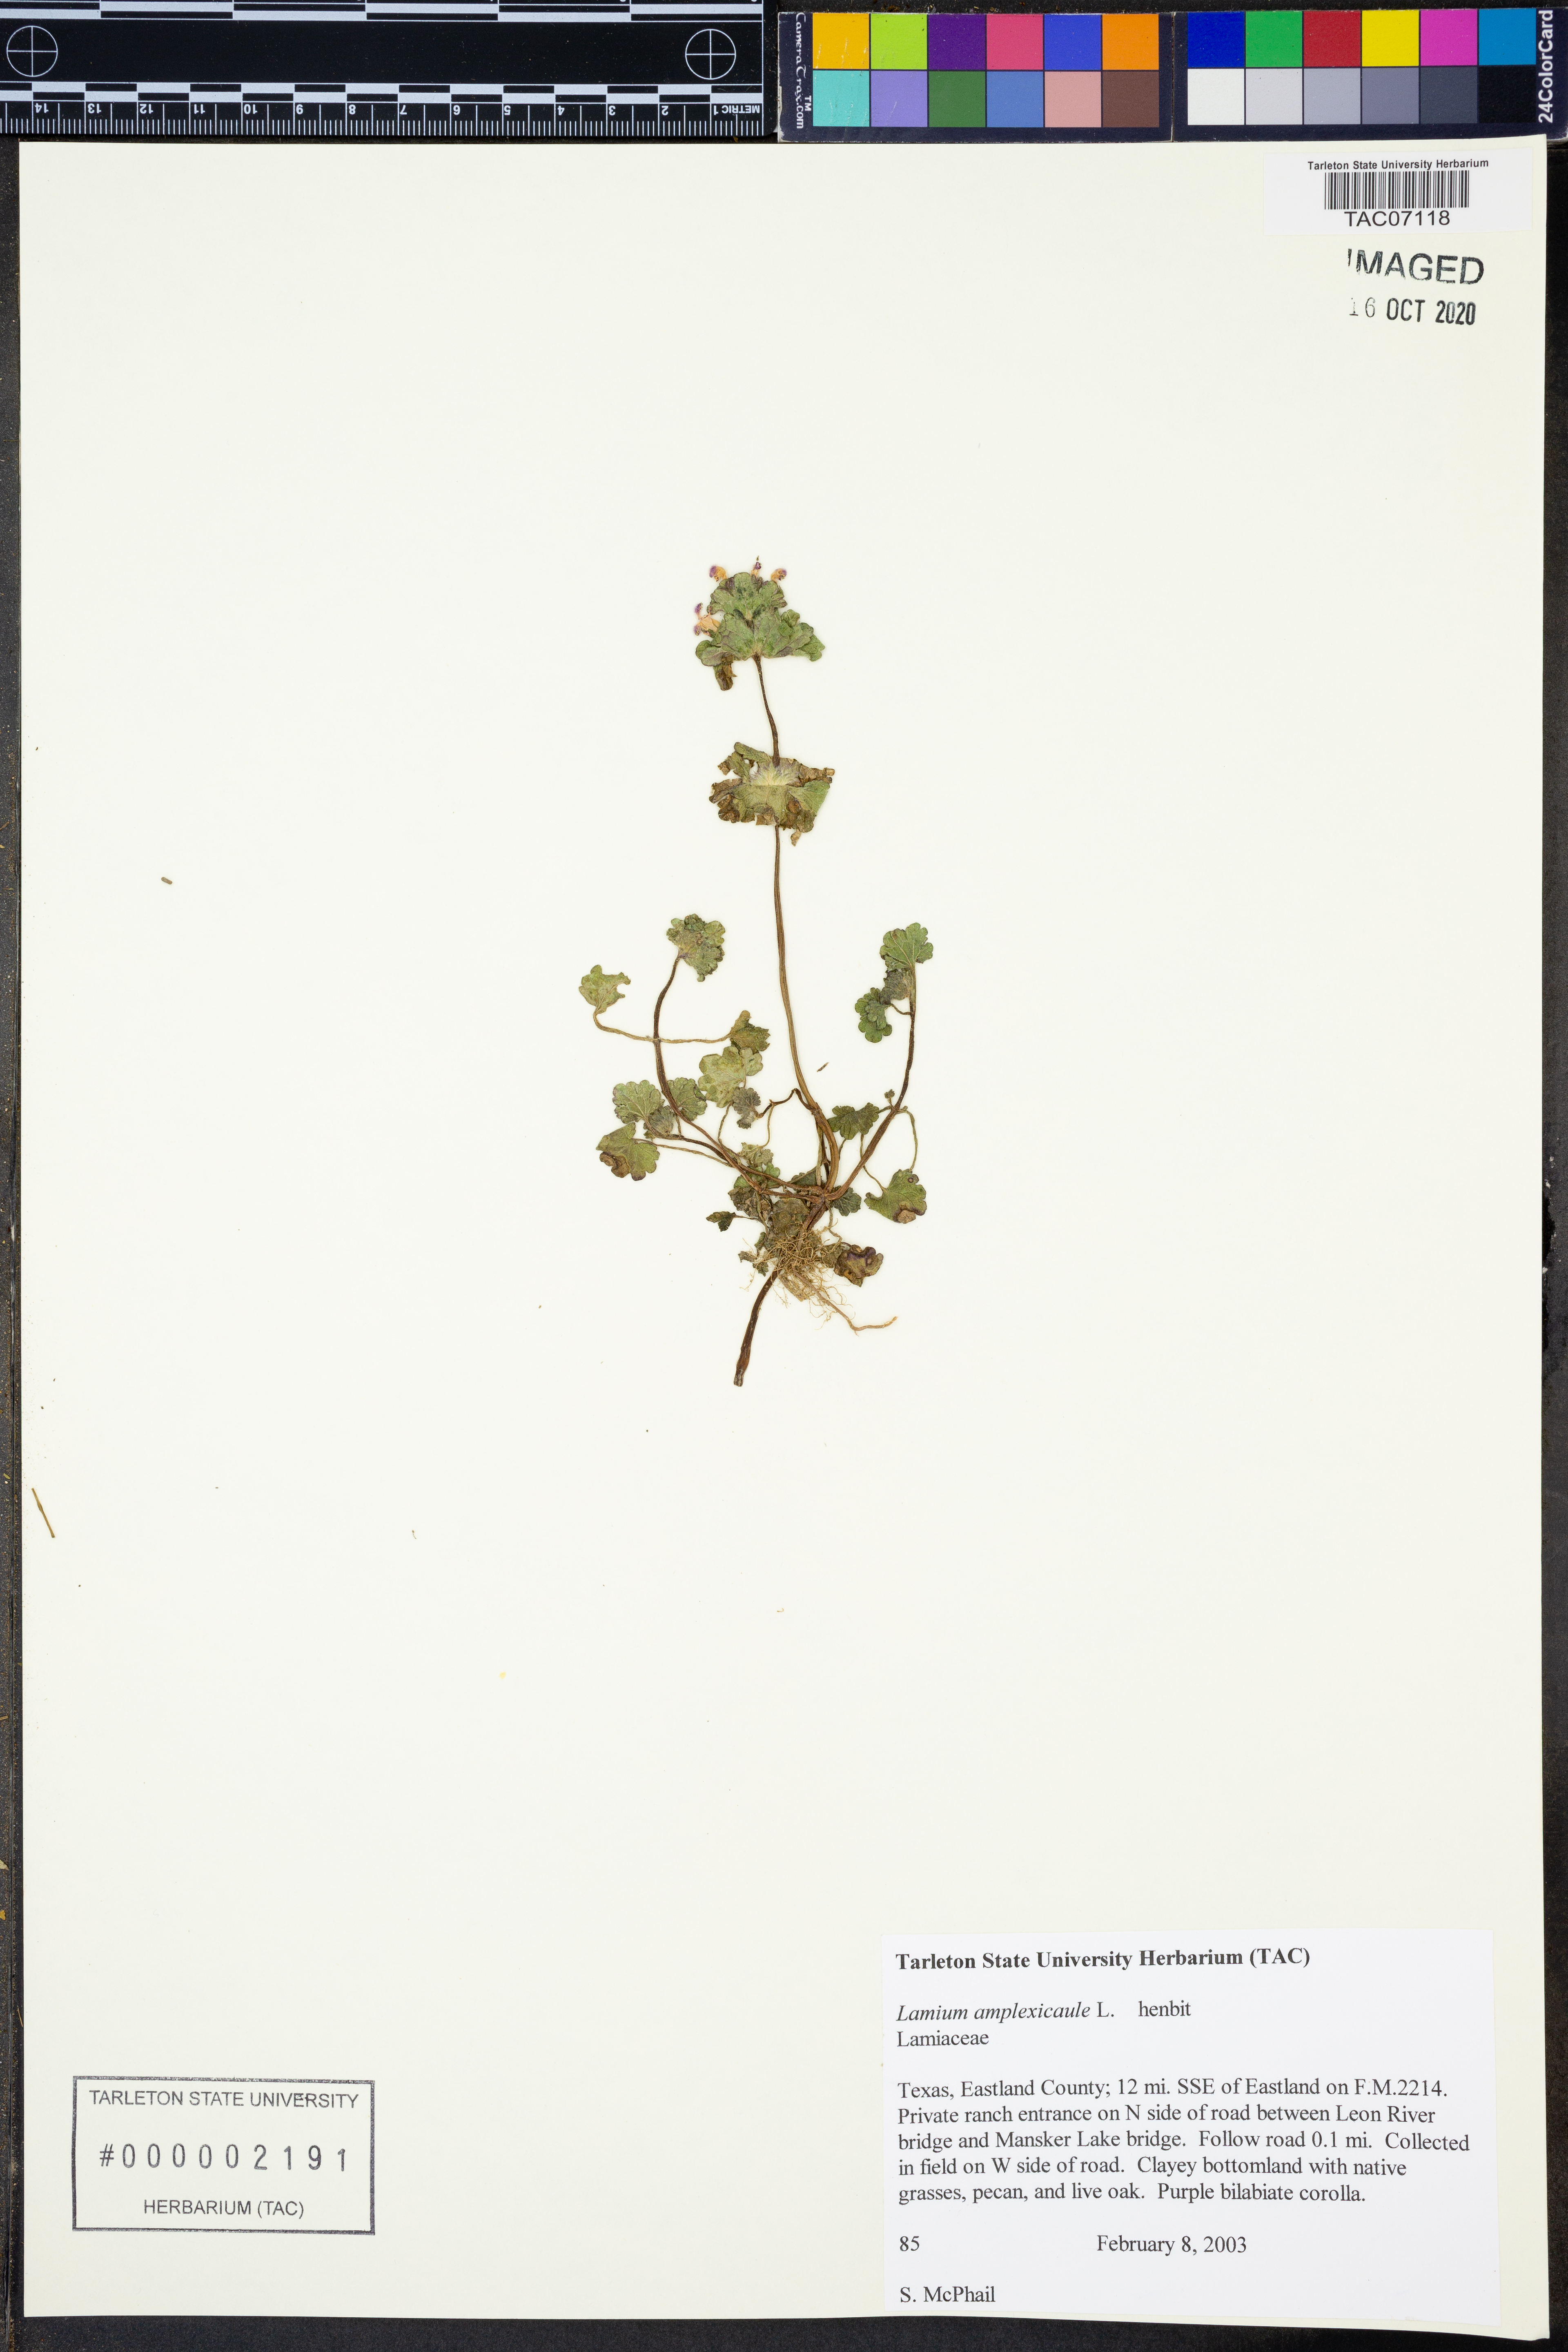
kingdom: Plantae
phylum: Tracheophyta
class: Magnoliopsida
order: Lamiales
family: Lamiaceae
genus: Lamium
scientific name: Lamium amplexicaule
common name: Henbit dead-nettle
